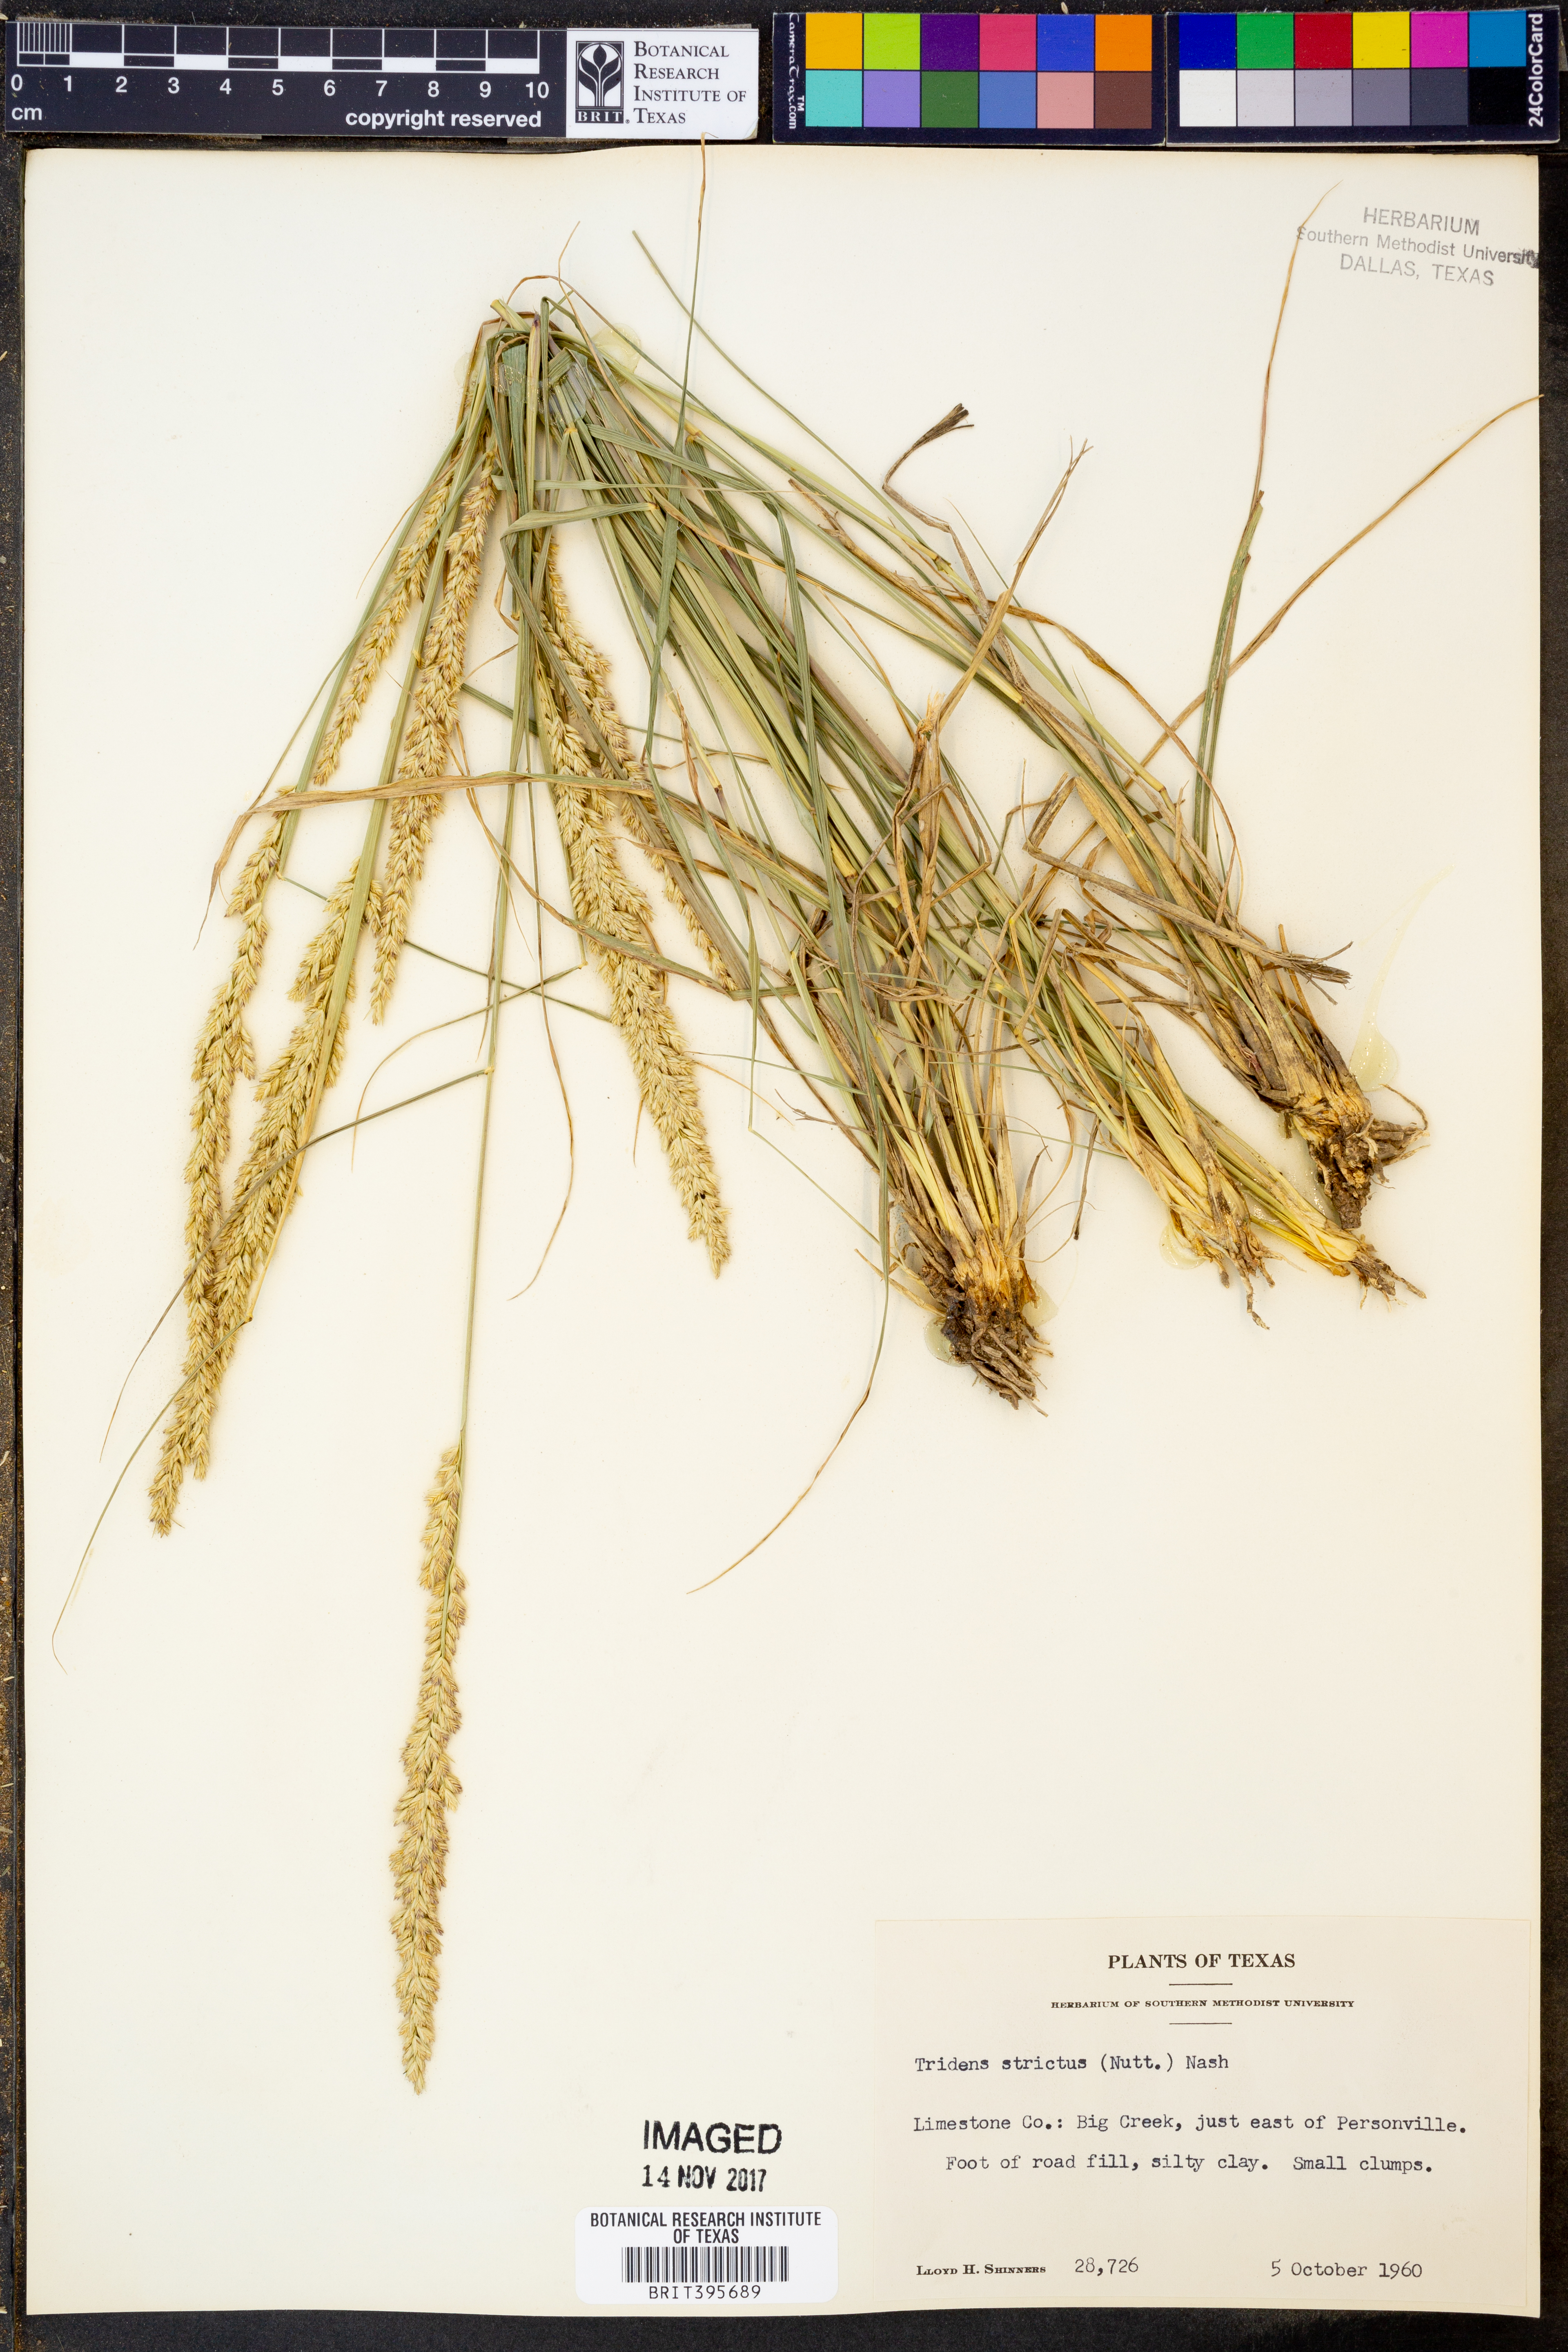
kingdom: Plantae
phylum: Tracheophyta
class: Liliopsida
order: Poales
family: Poaceae
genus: Tridens
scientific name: Tridens strictus
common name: Long-spike tridens
